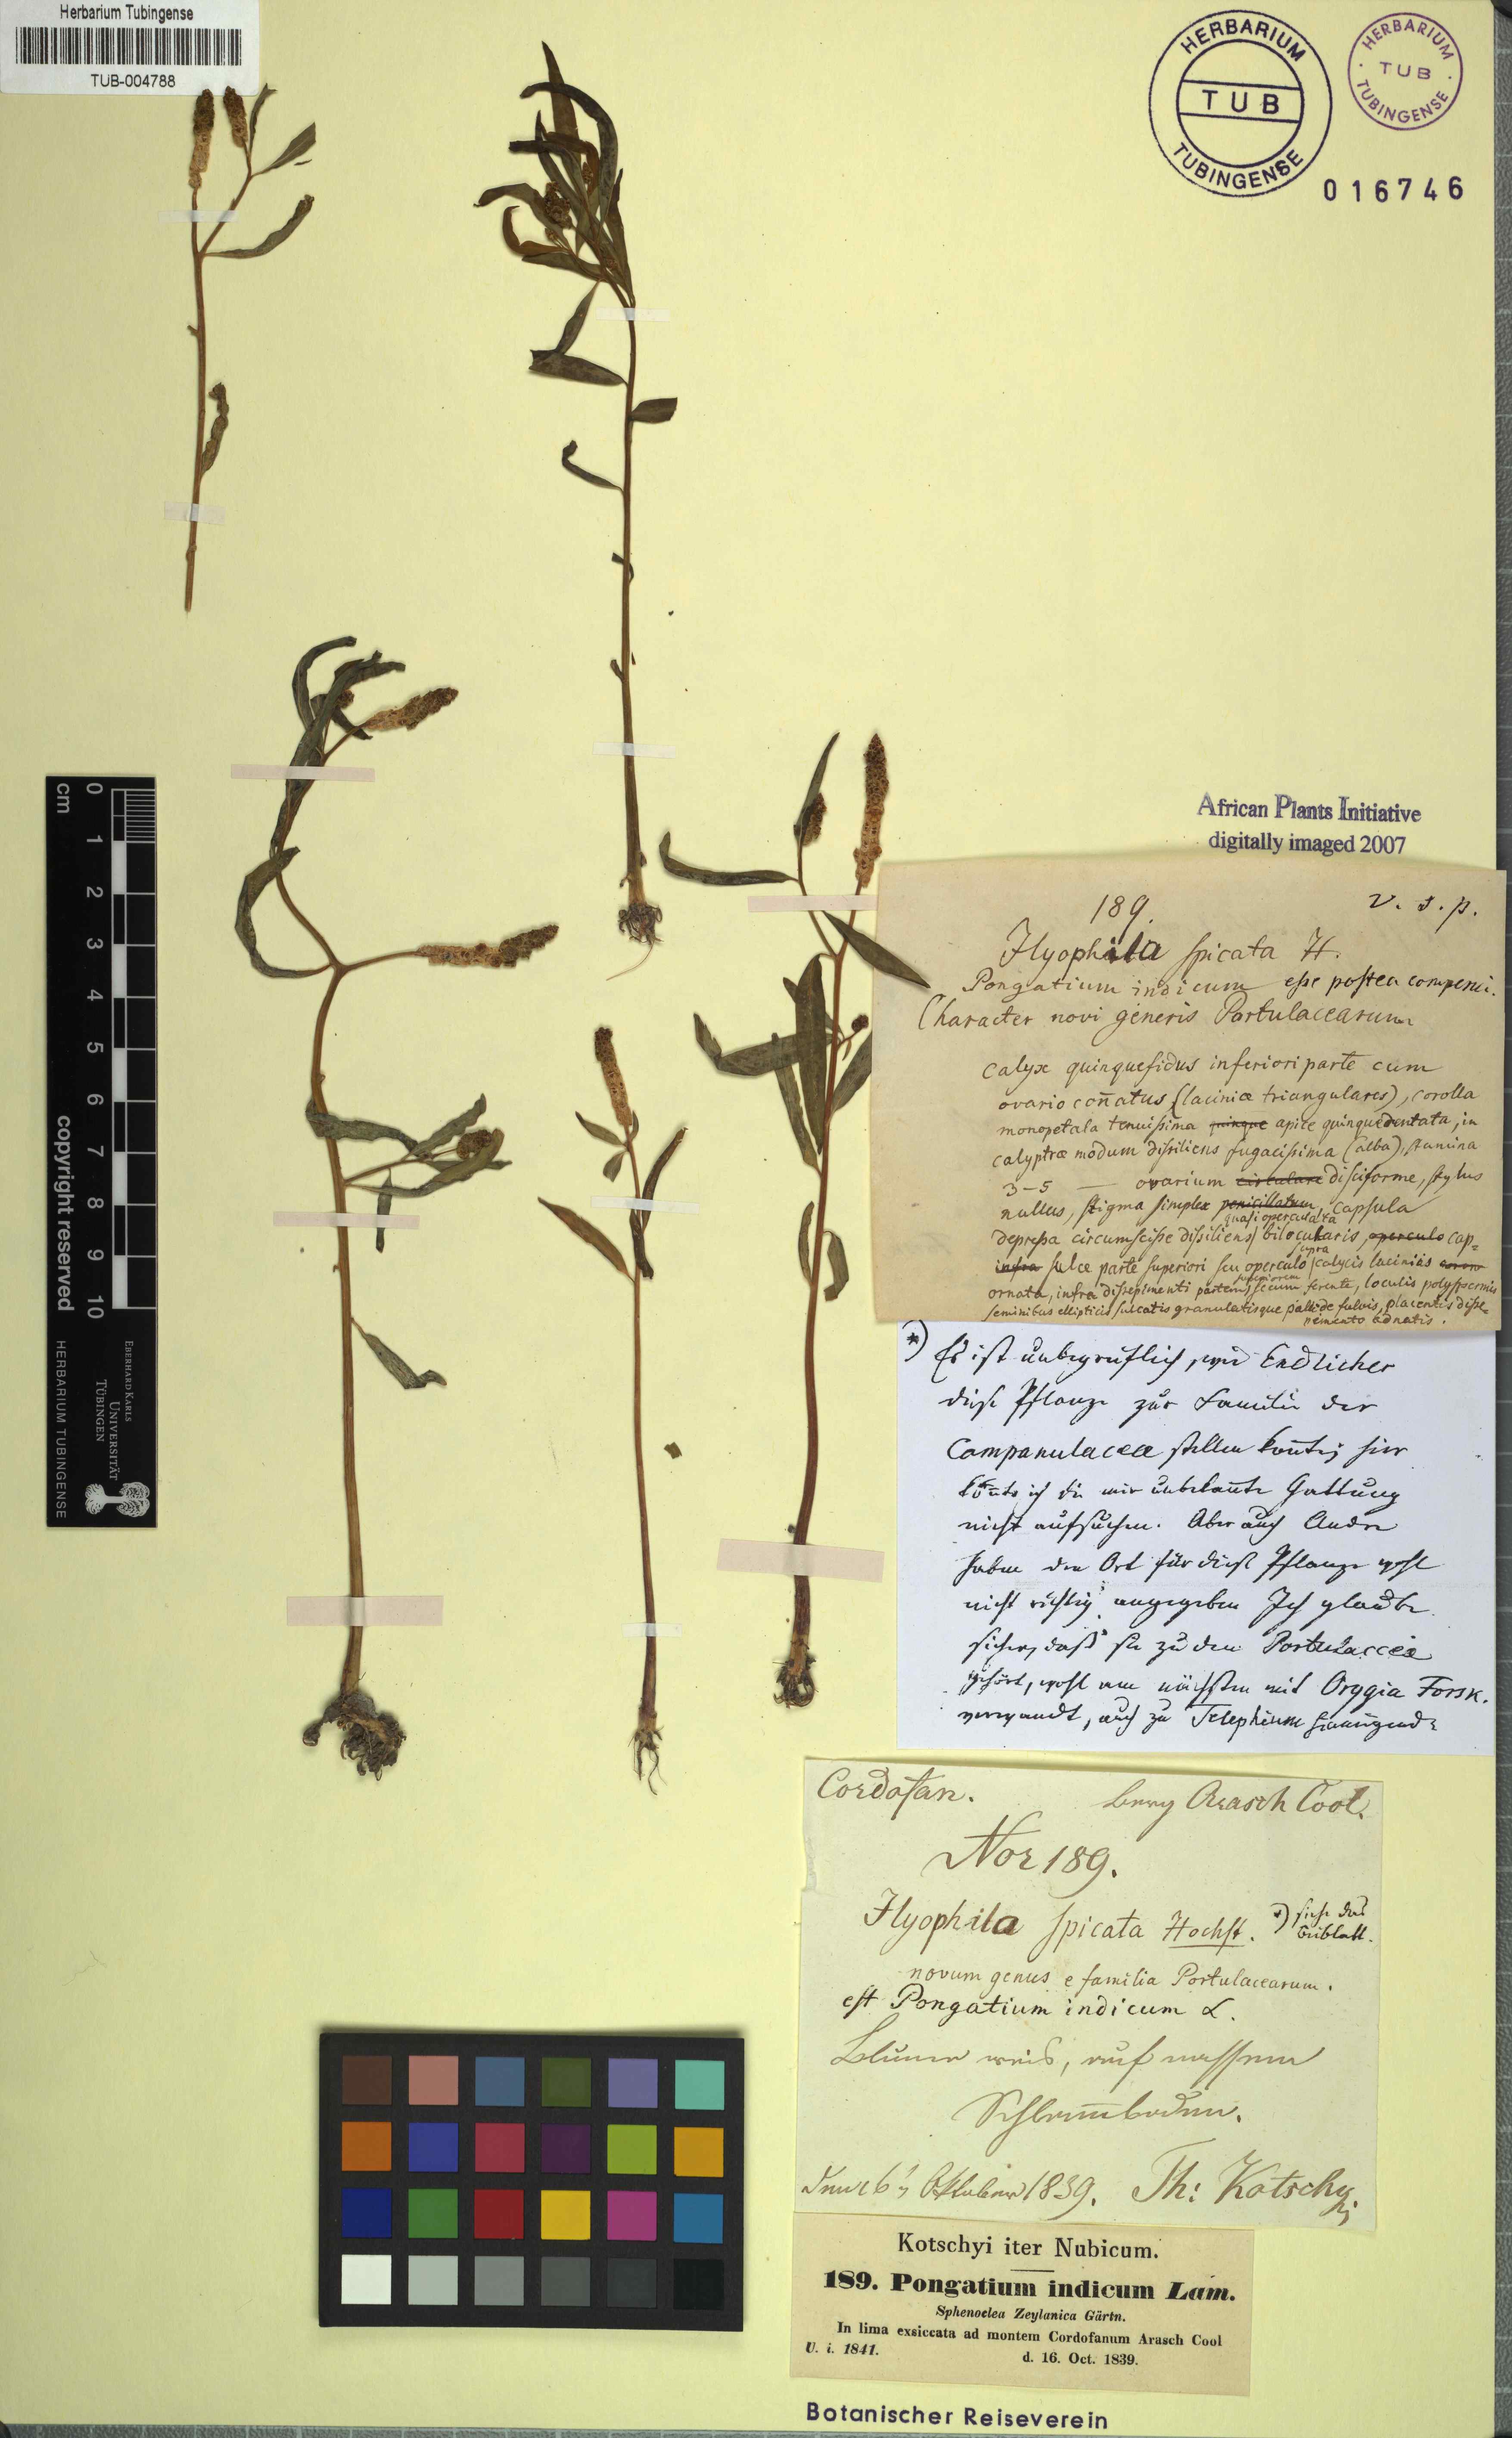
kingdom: Plantae
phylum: Tracheophyta
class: Magnoliopsida
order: Solanales
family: Sphenocleaceae
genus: Sphenoclea
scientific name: Sphenoclea zeylanica
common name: Chickenspike
